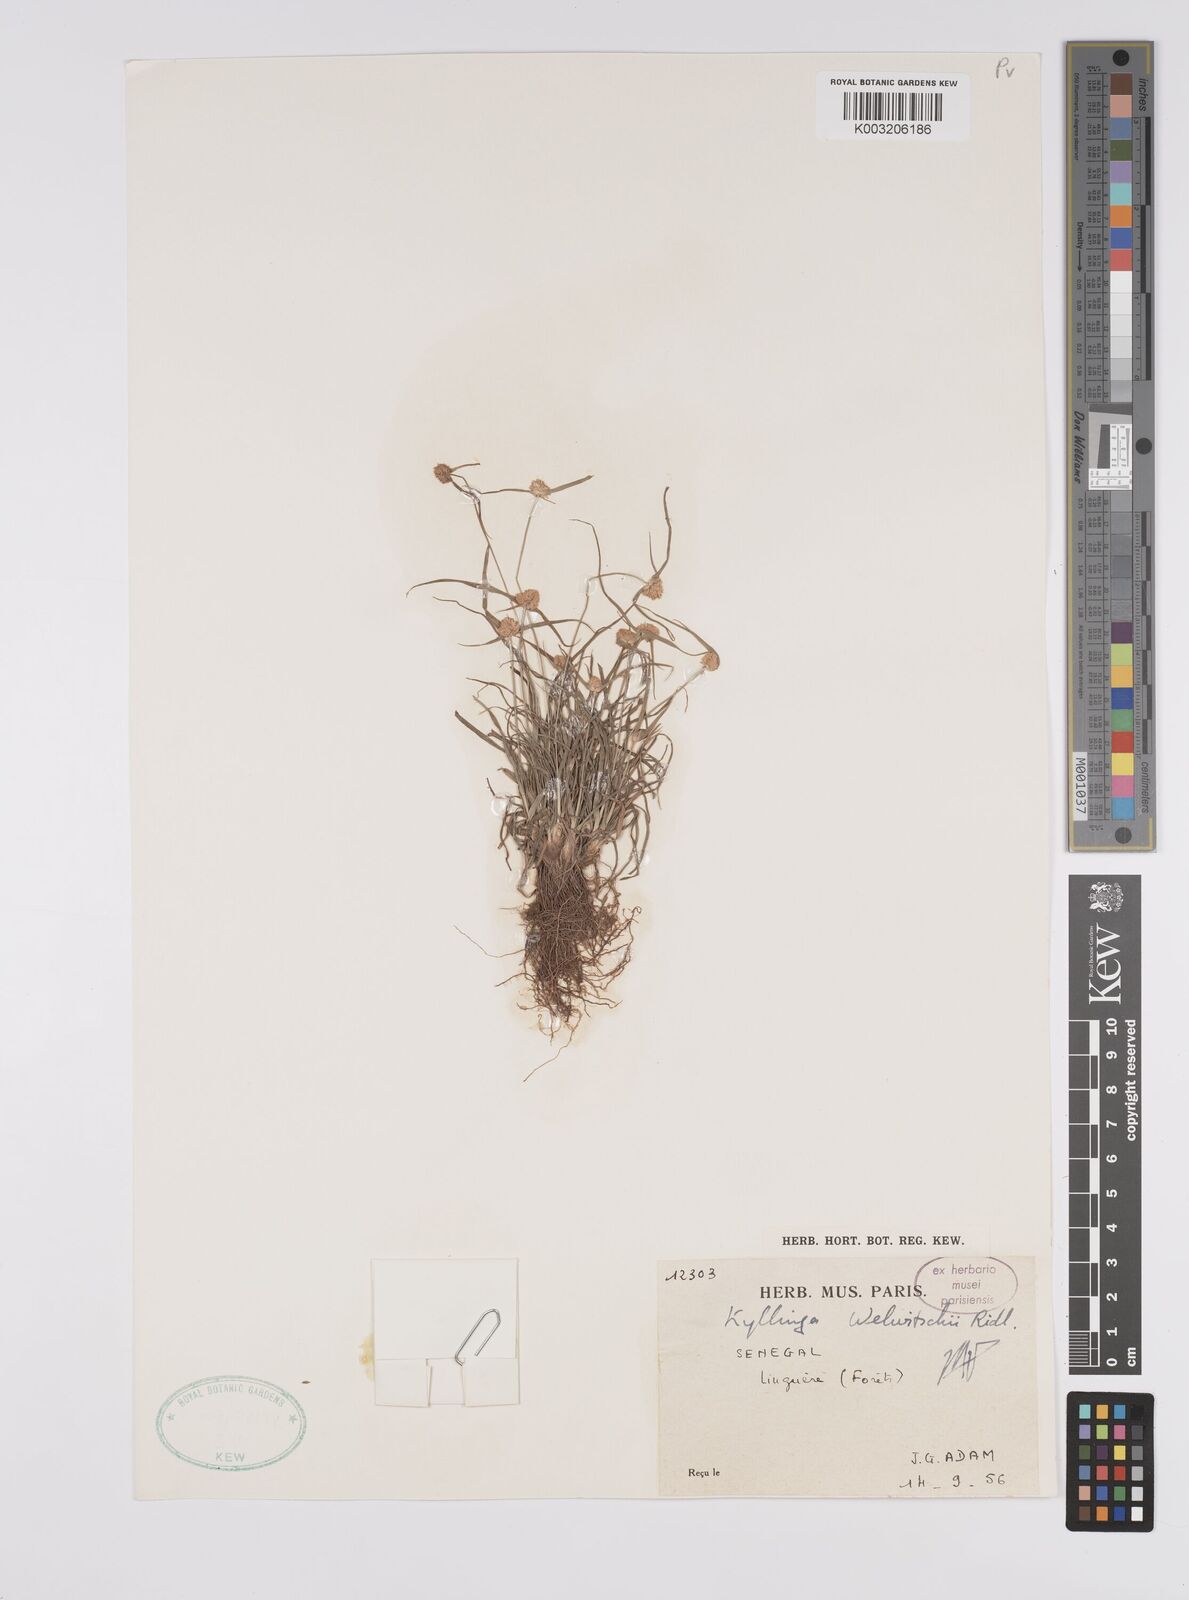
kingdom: Plantae
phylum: Tracheophyta
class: Liliopsida
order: Poales
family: Cyperaceae
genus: Cyperus
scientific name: Cyperus
